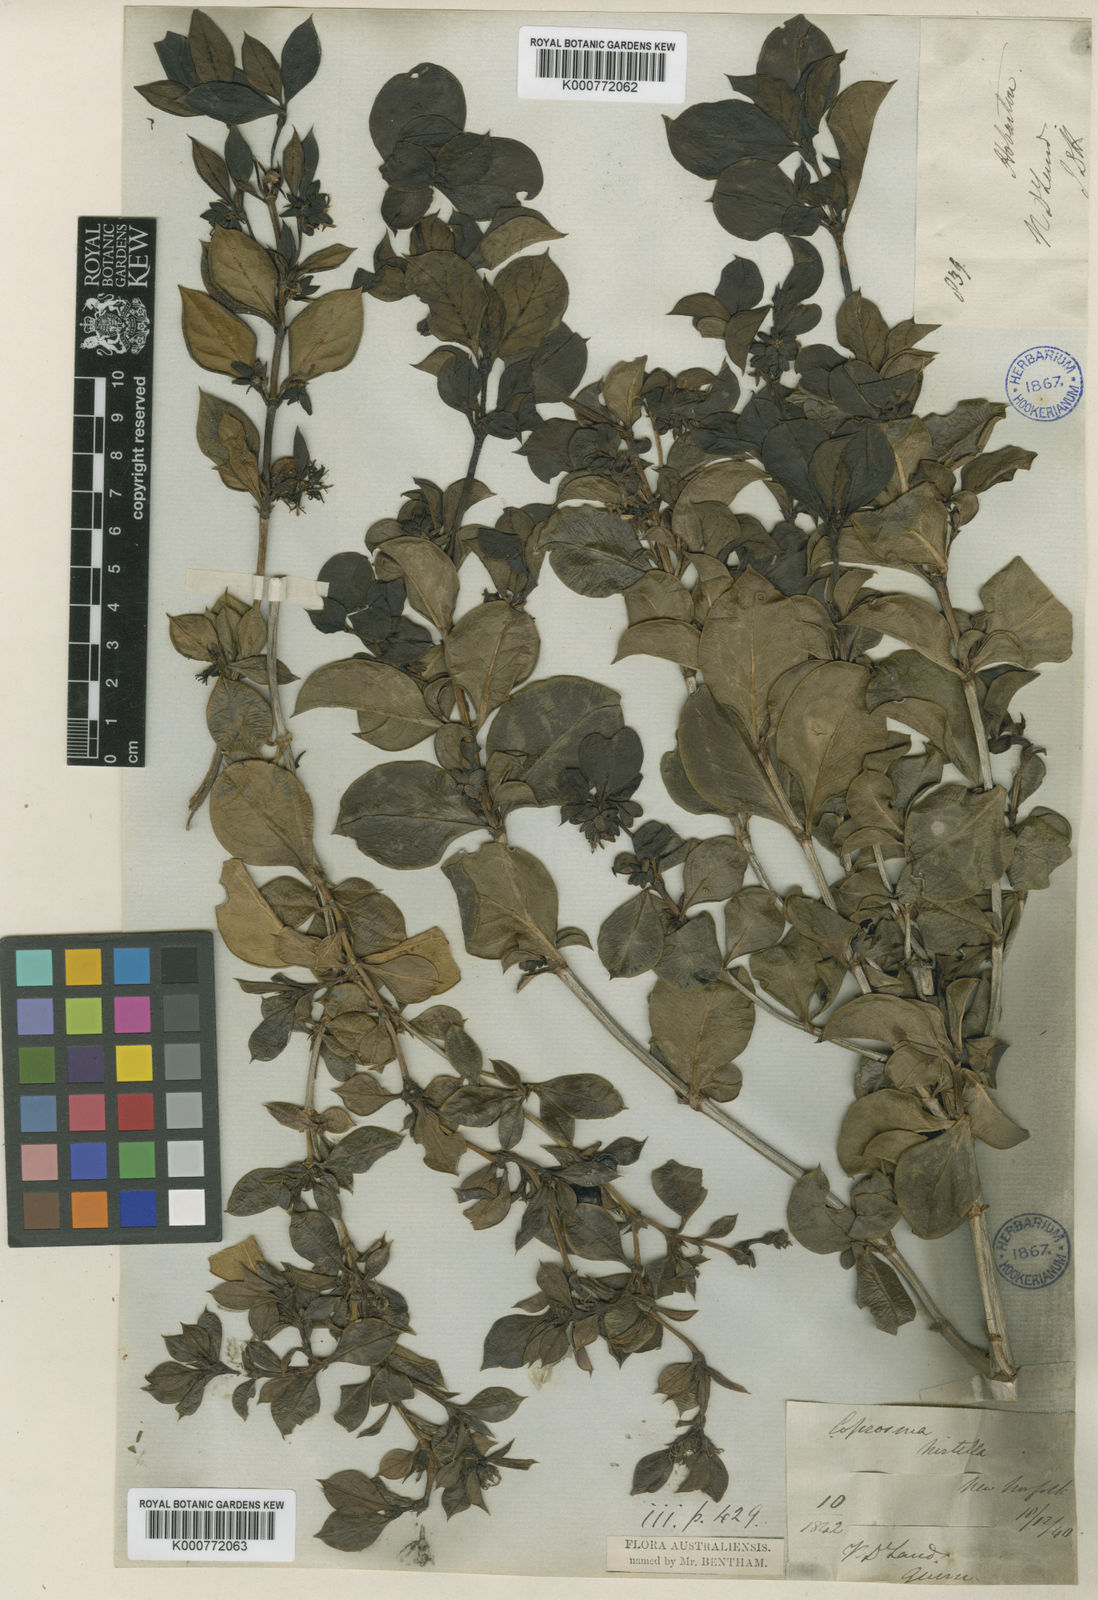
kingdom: Plantae
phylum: Tracheophyta
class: Magnoliopsida
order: Gentianales
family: Rubiaceae
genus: Coprosma
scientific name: Coprosma hirtella
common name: Rough coprosma
